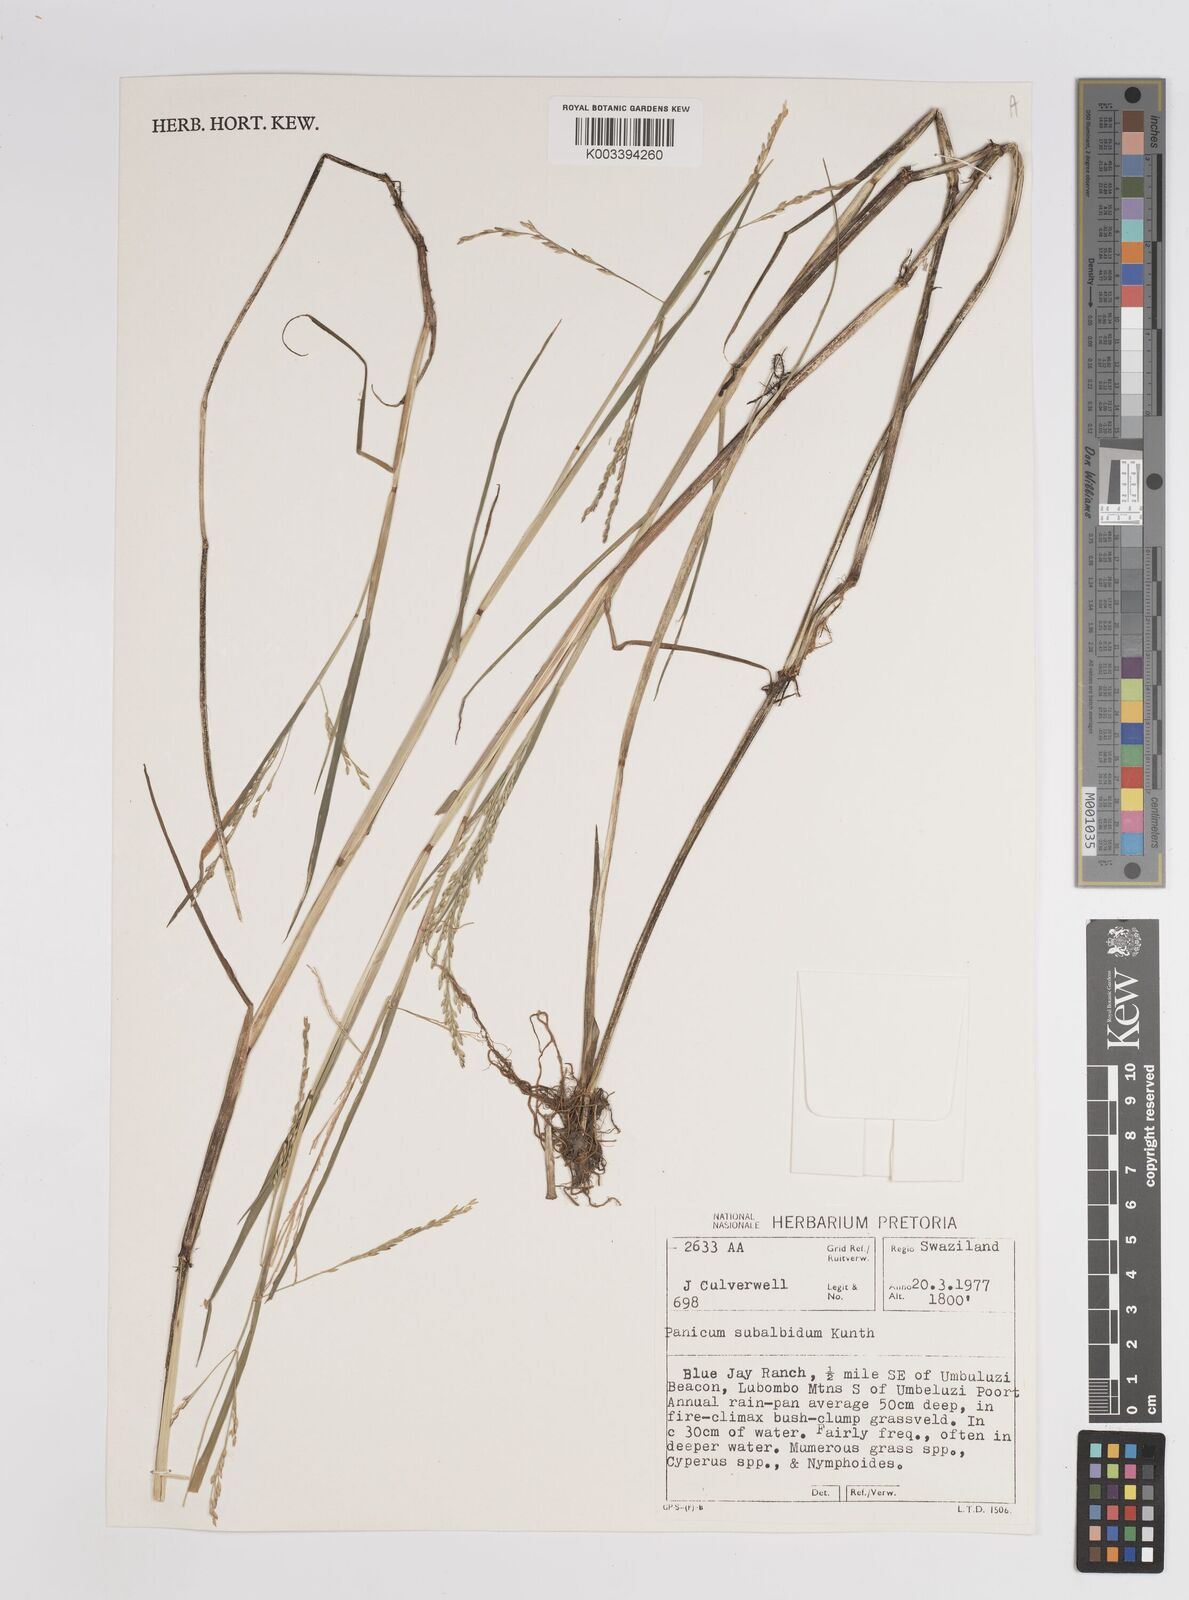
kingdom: Plantae
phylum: Tracheophyta
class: Liliopsida
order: Poales
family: Poaceae
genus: Panicum
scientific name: Panicum subalbidum
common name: Elbow buffalo grass
